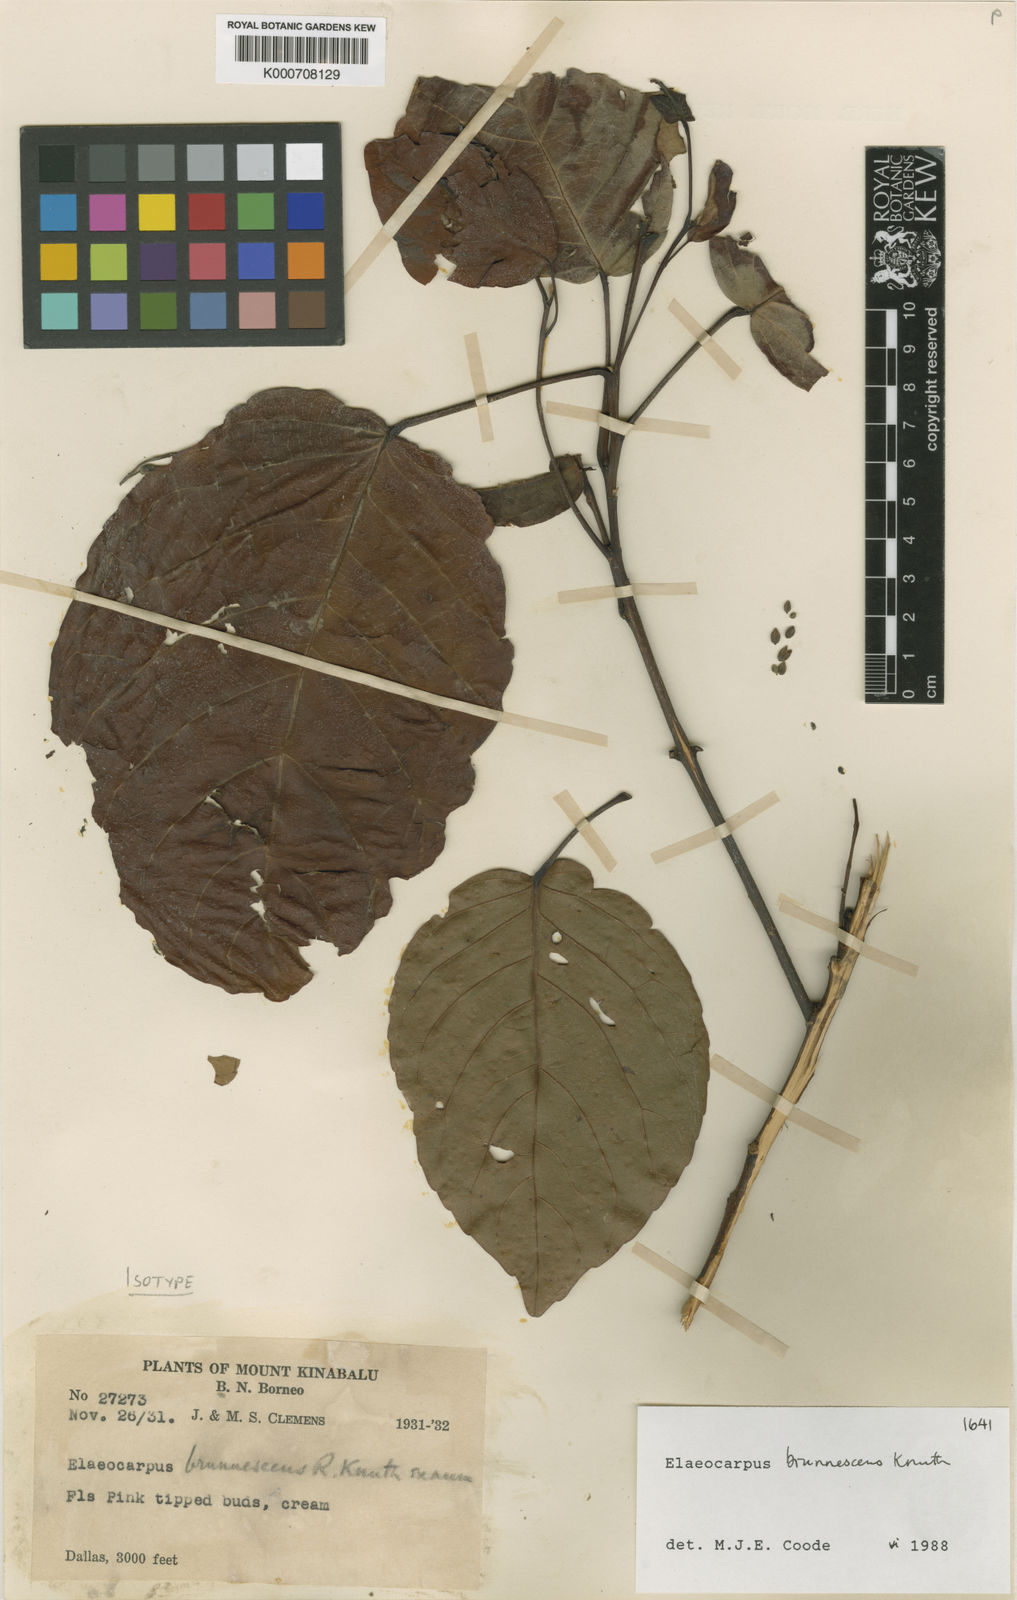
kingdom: Plantae
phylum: Tracheophyta
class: Magnoliopsida
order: Oxalidales
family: Elaeocarpaceae
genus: Elaeocarpus
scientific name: Elaeocarpus brunnescens
